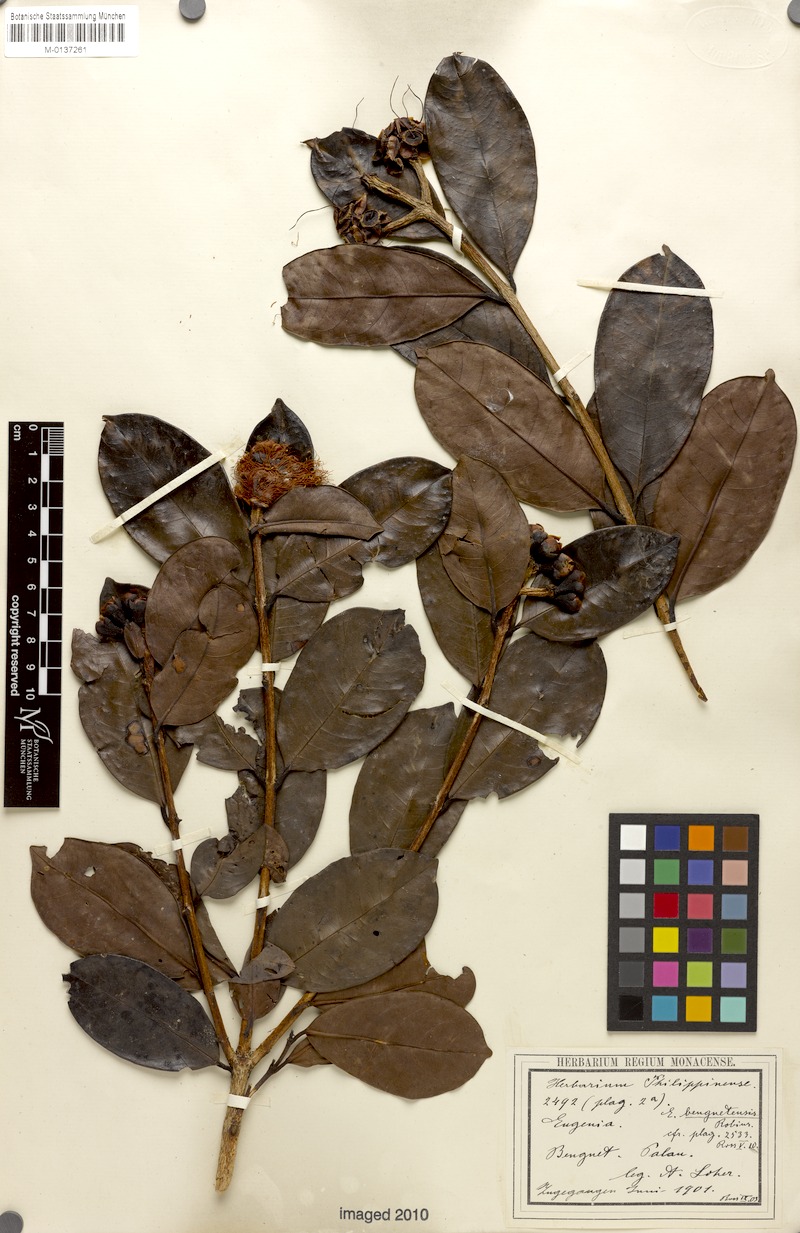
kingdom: Plantae
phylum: Tracheophyta
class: Magnoliopsida
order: Myrtales
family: Myrtaceae
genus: Syzygium
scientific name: Syzygium benguetense
